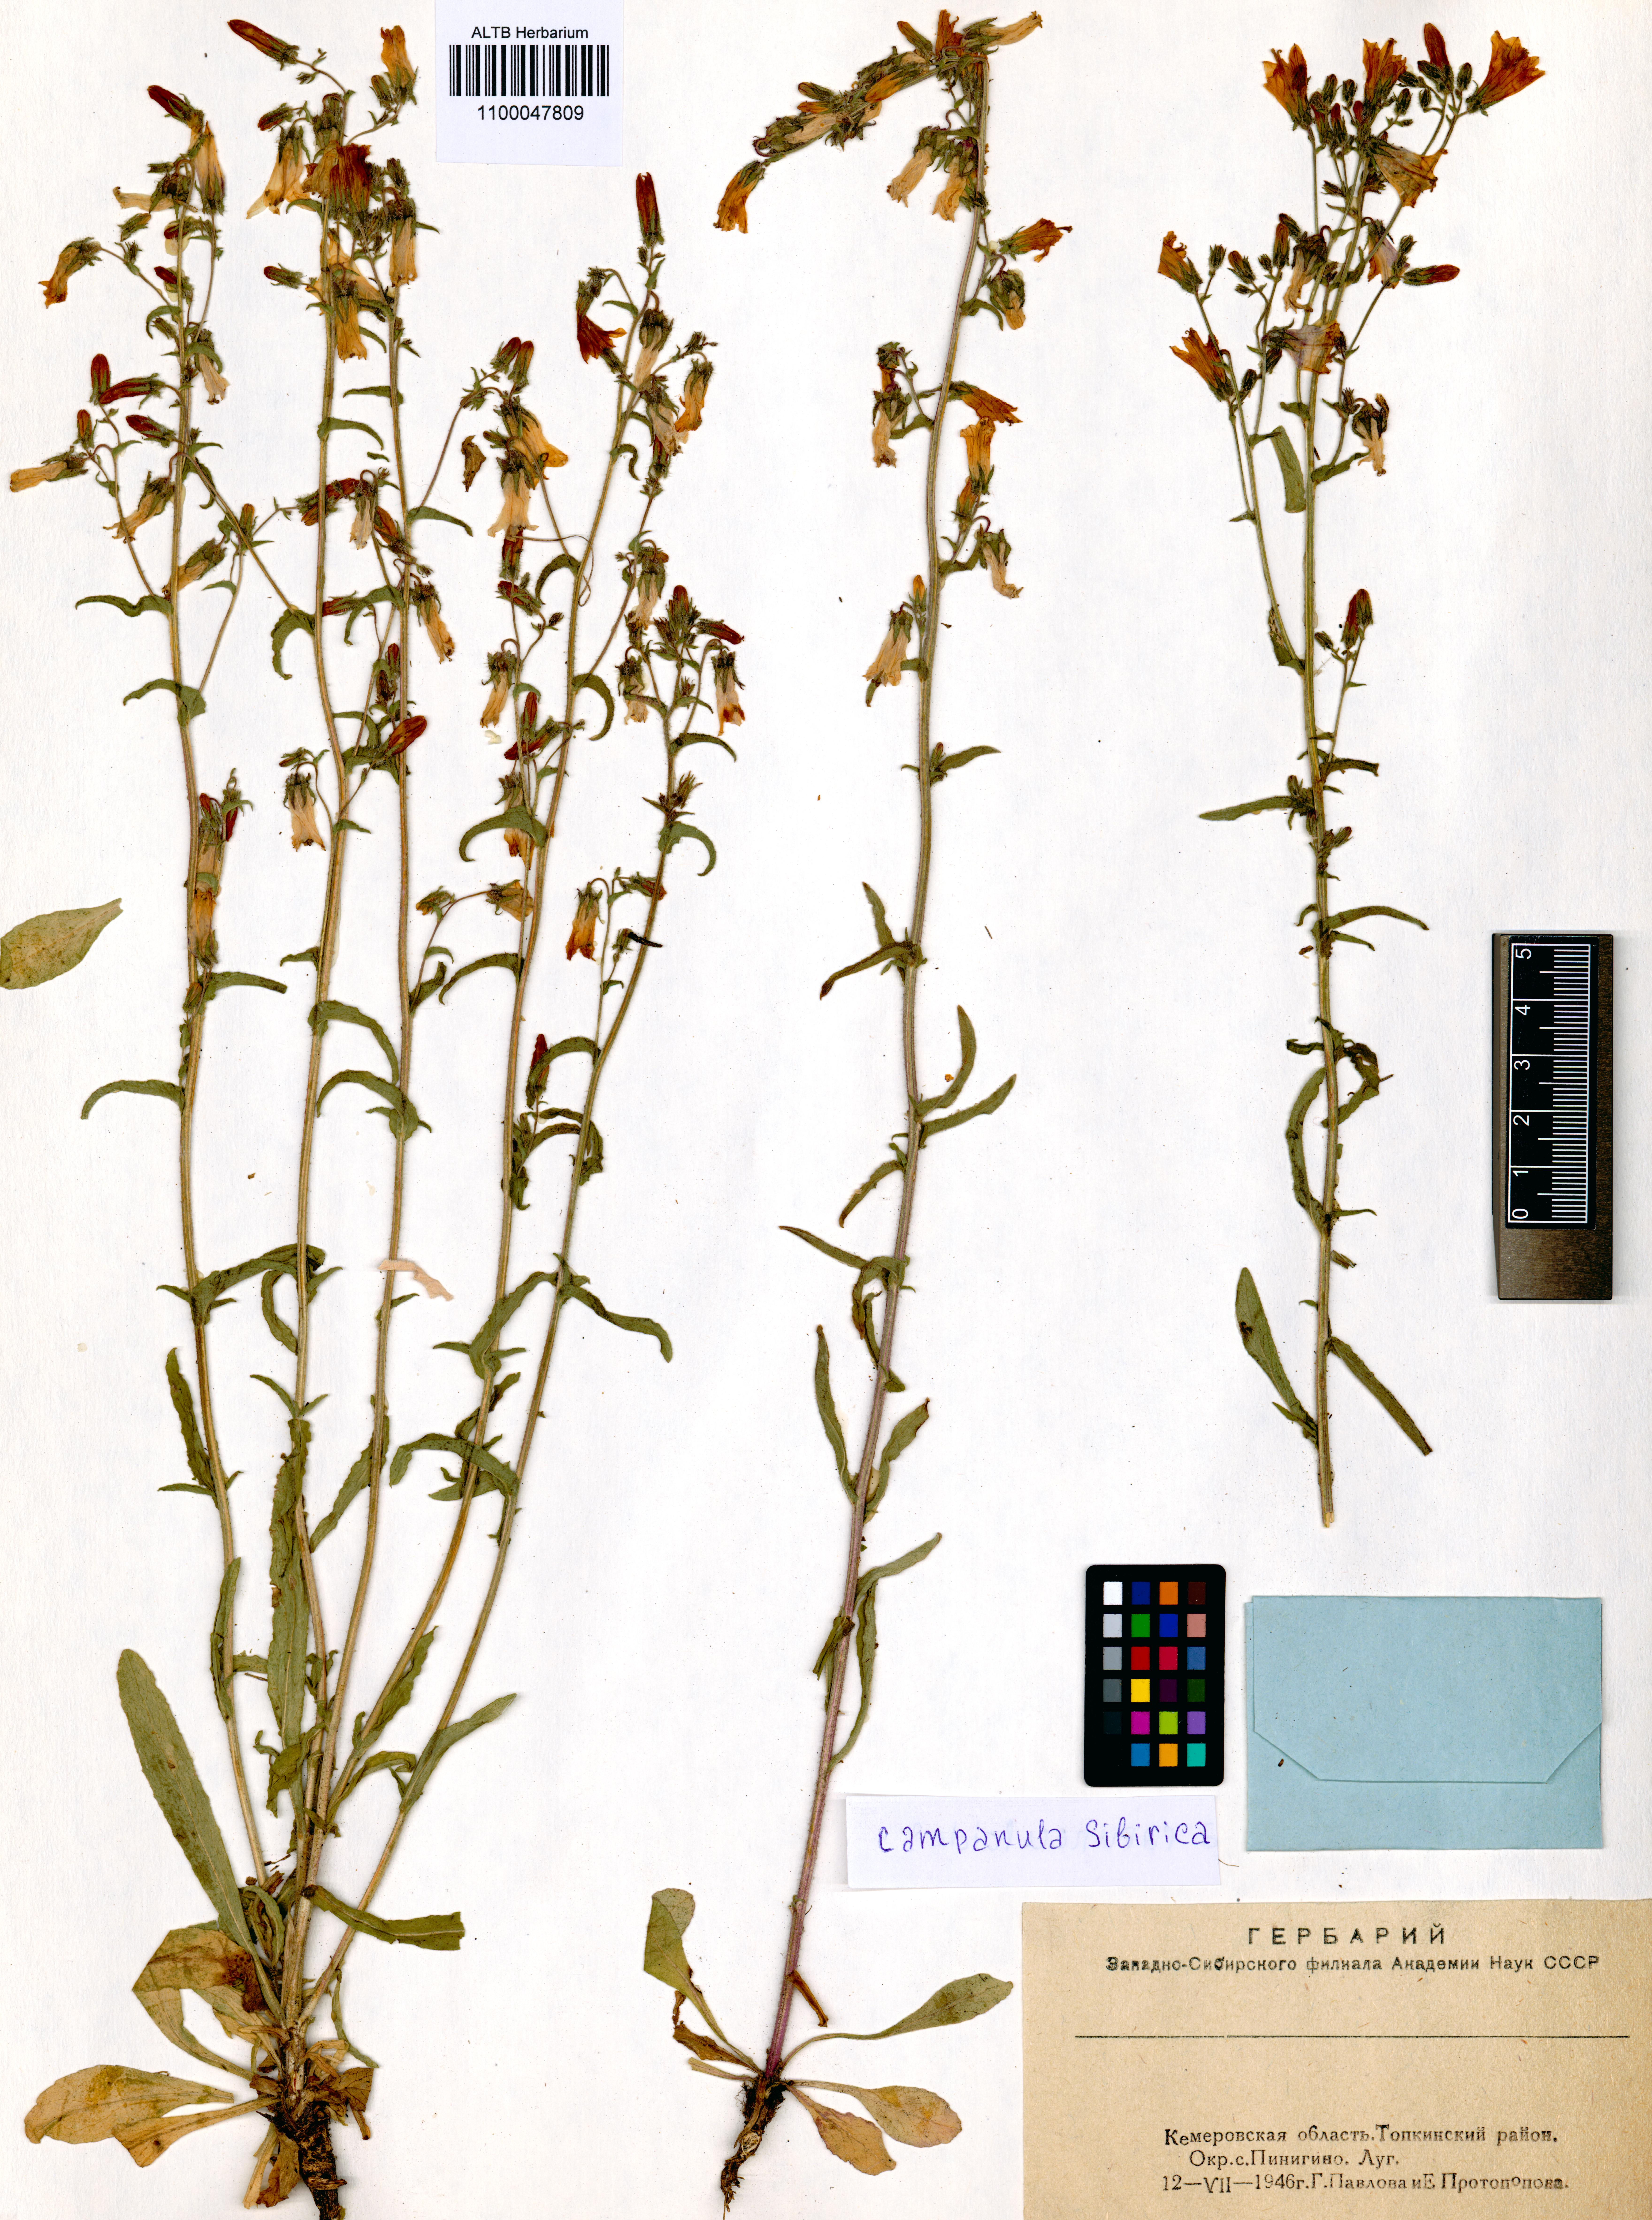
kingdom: Plantae
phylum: Tracheophyta
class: Magnoliopsida
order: Asterales
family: Campanulaceae
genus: Campanula
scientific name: Campanula sibirica
